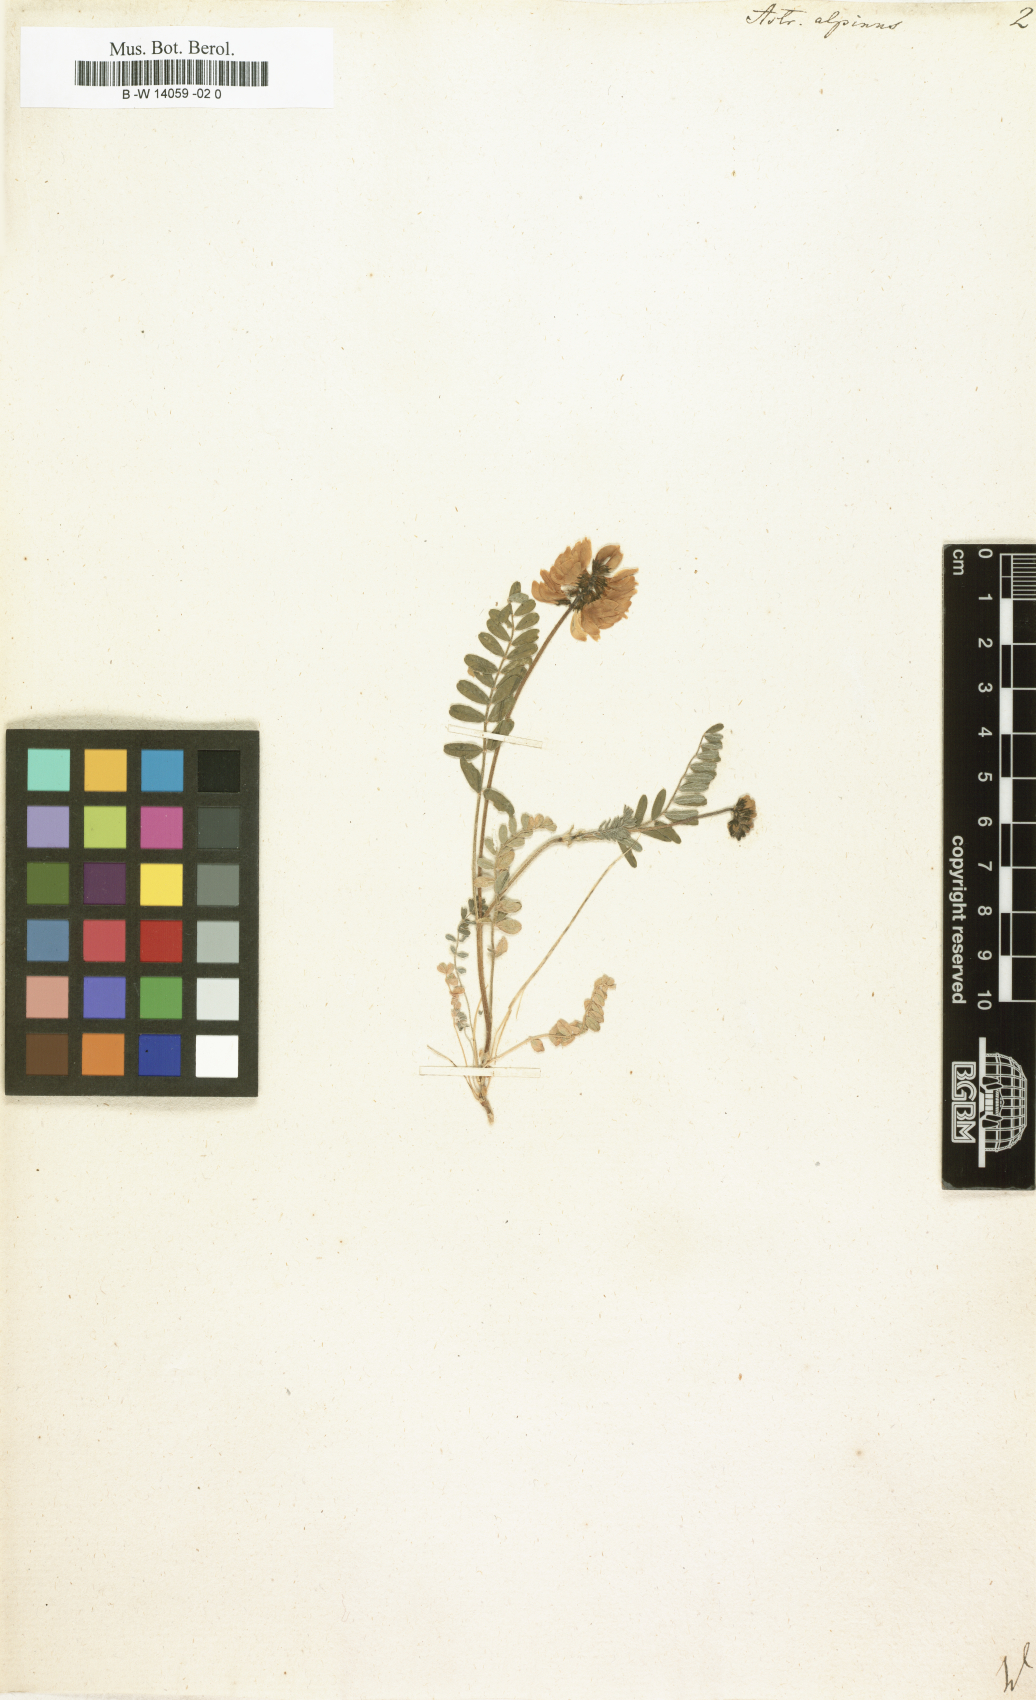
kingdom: Plantae
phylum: Tracheophyta
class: Magnoliopsida
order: Fabales
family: Fabaceae
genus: Astragalus
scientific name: Astragalus alpinus
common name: Alpine milk-vetch
